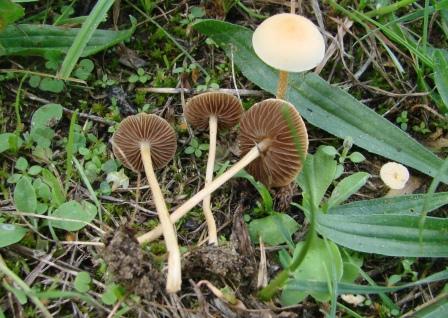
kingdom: Fungi
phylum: Basidiomycota
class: Agaricomycetes
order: Agaricales
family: Strophariaceae
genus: Agrocybe
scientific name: Agrocybe pediades
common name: almindelig agerhat
